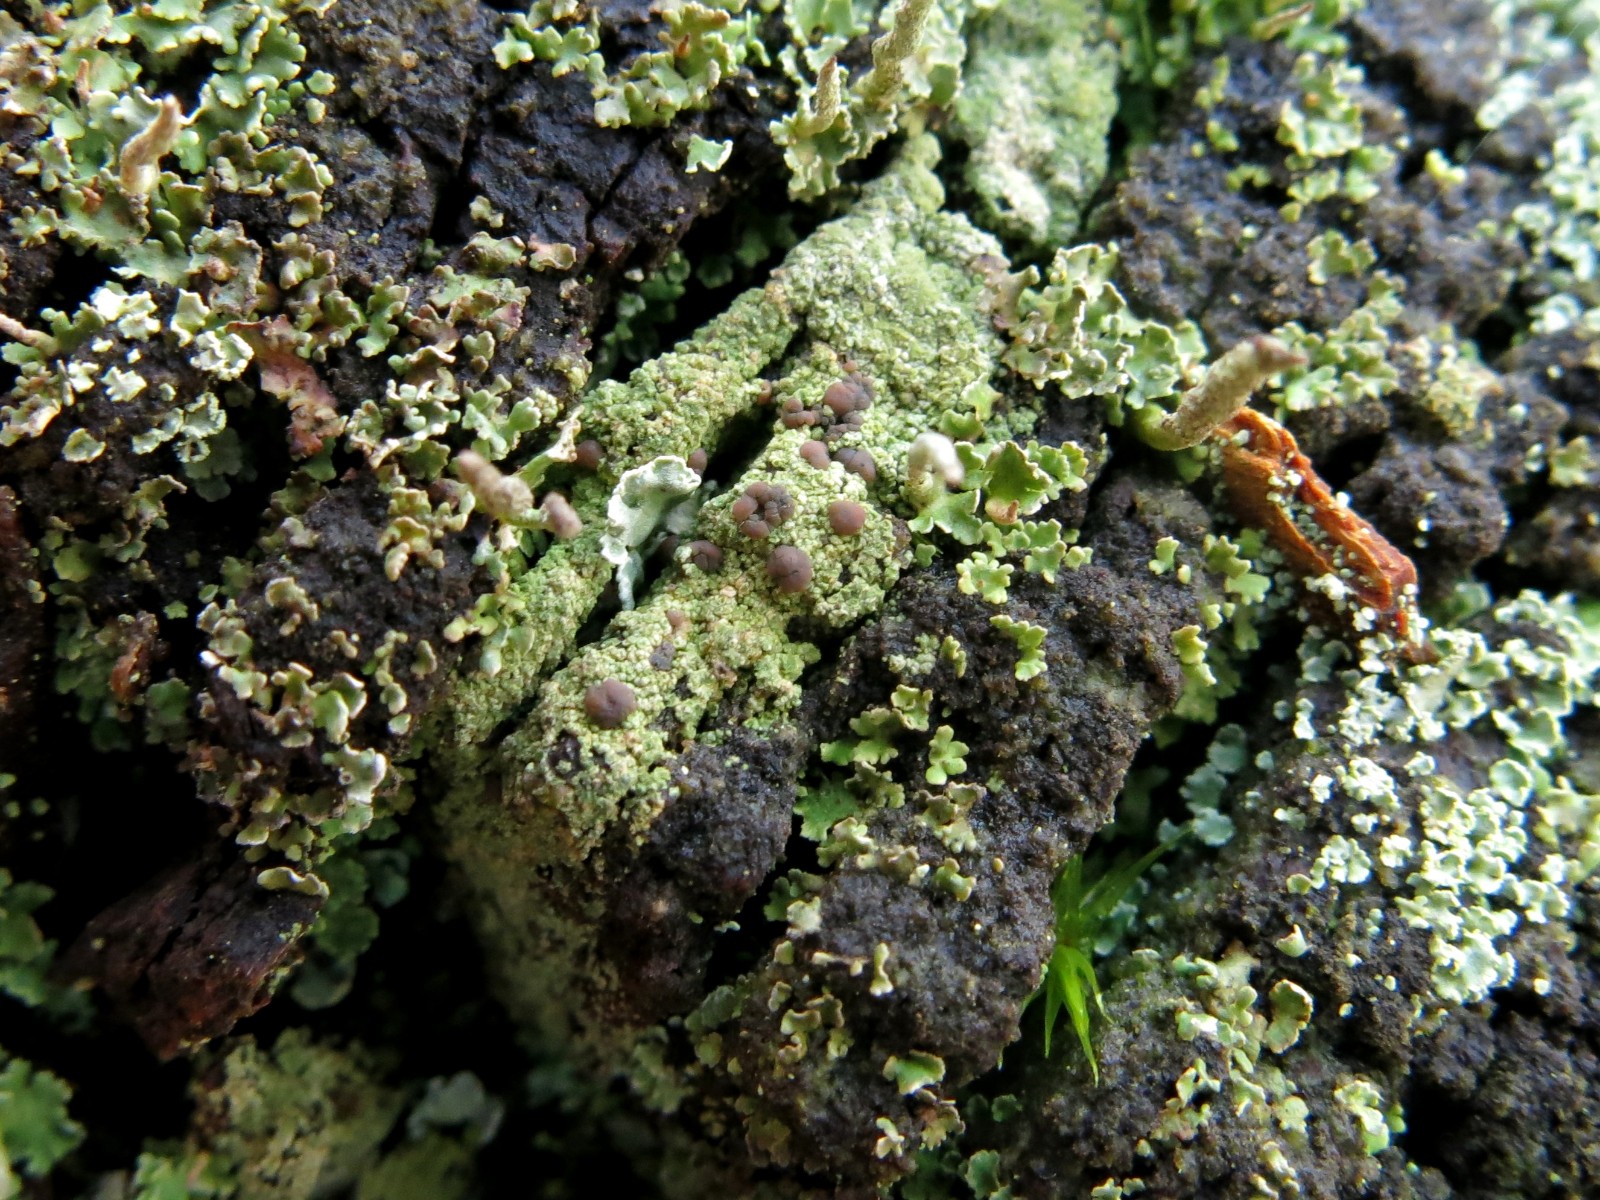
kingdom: Fungi
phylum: Ascomycota
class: Lecanoromycetes
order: Baeomycetales
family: Trapeliaceae
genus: Trapeliopsis
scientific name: Trapeliopsis granulosa
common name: forskelligfarvet skivelav
